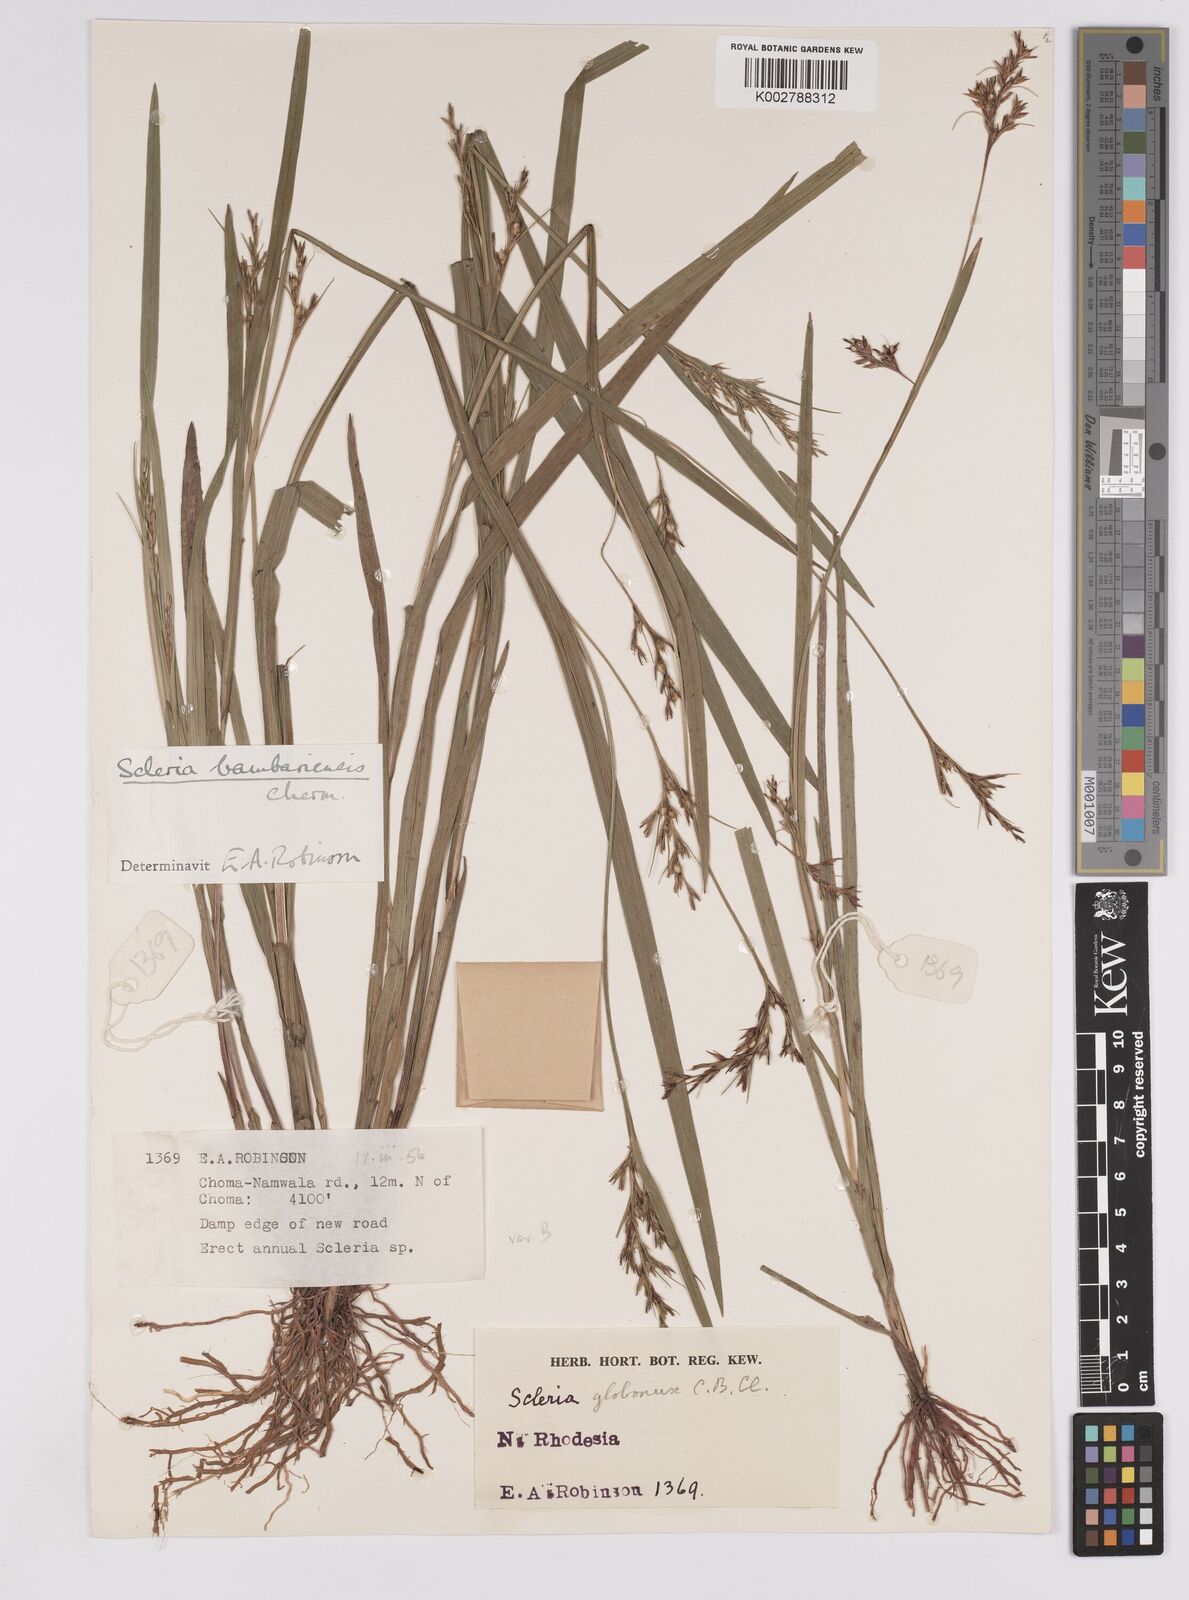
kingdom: Plantae
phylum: Tracheophyta
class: Liliopsida
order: Poales
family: Cyperaceae
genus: Scleria
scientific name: Scleria bambariensis
